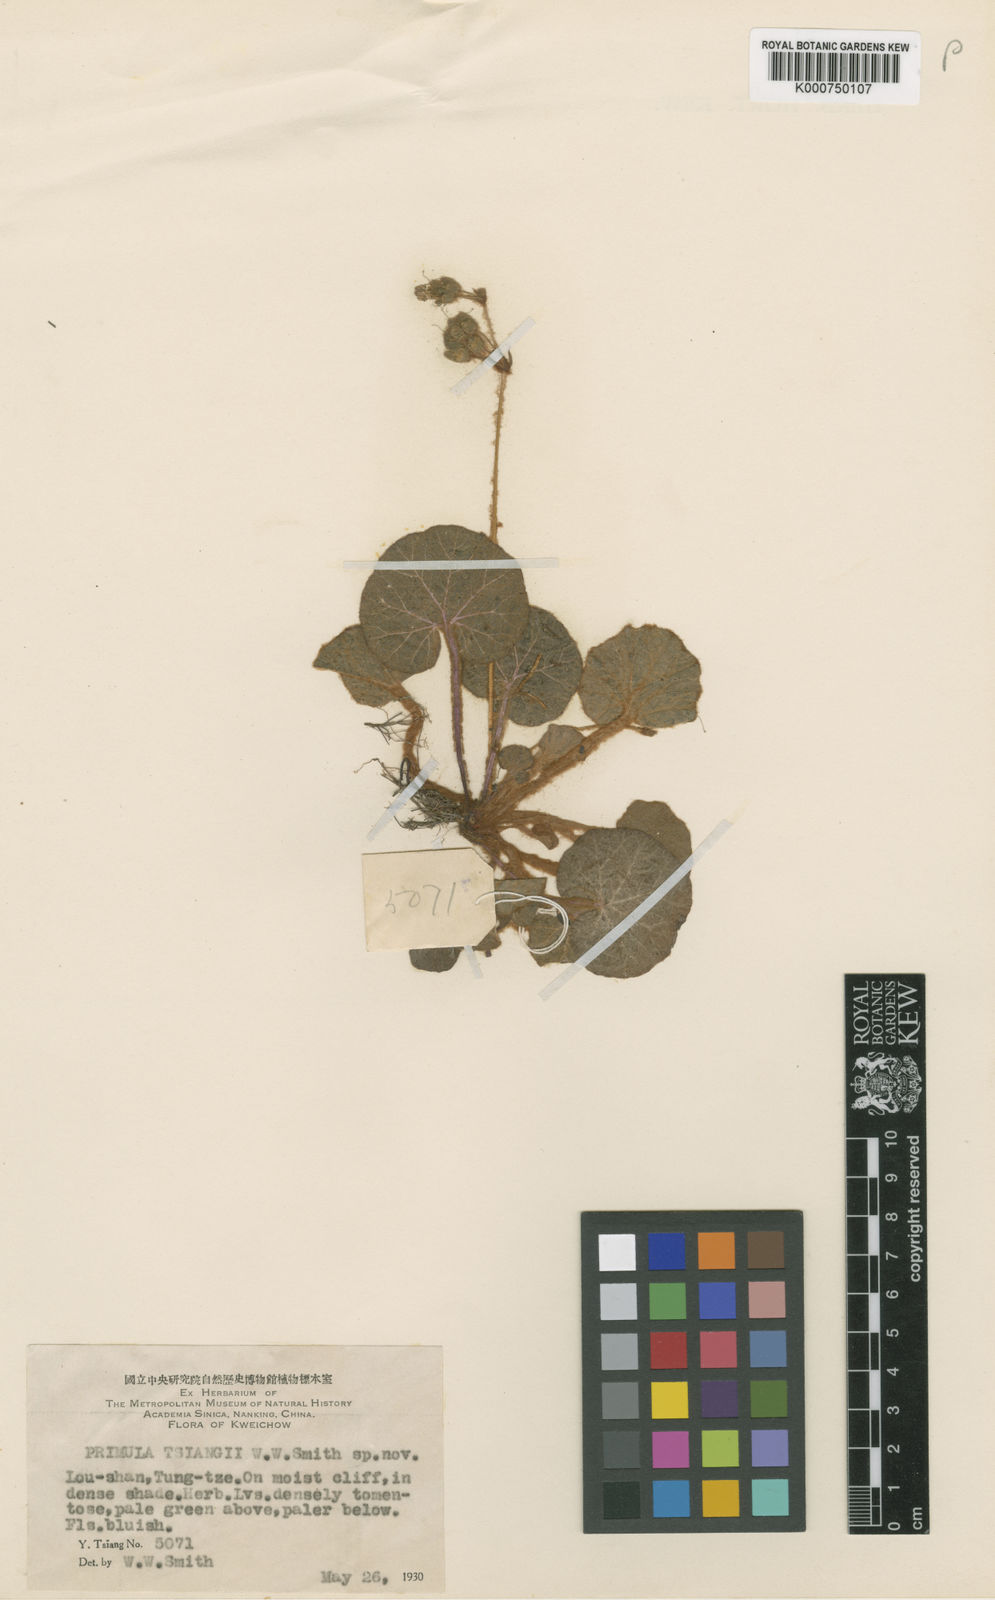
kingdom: Plantae
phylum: Tracheophyta
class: Magnoliopsida
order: Ericales
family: Primulaceae
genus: Primula
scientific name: Primula tsiangii
